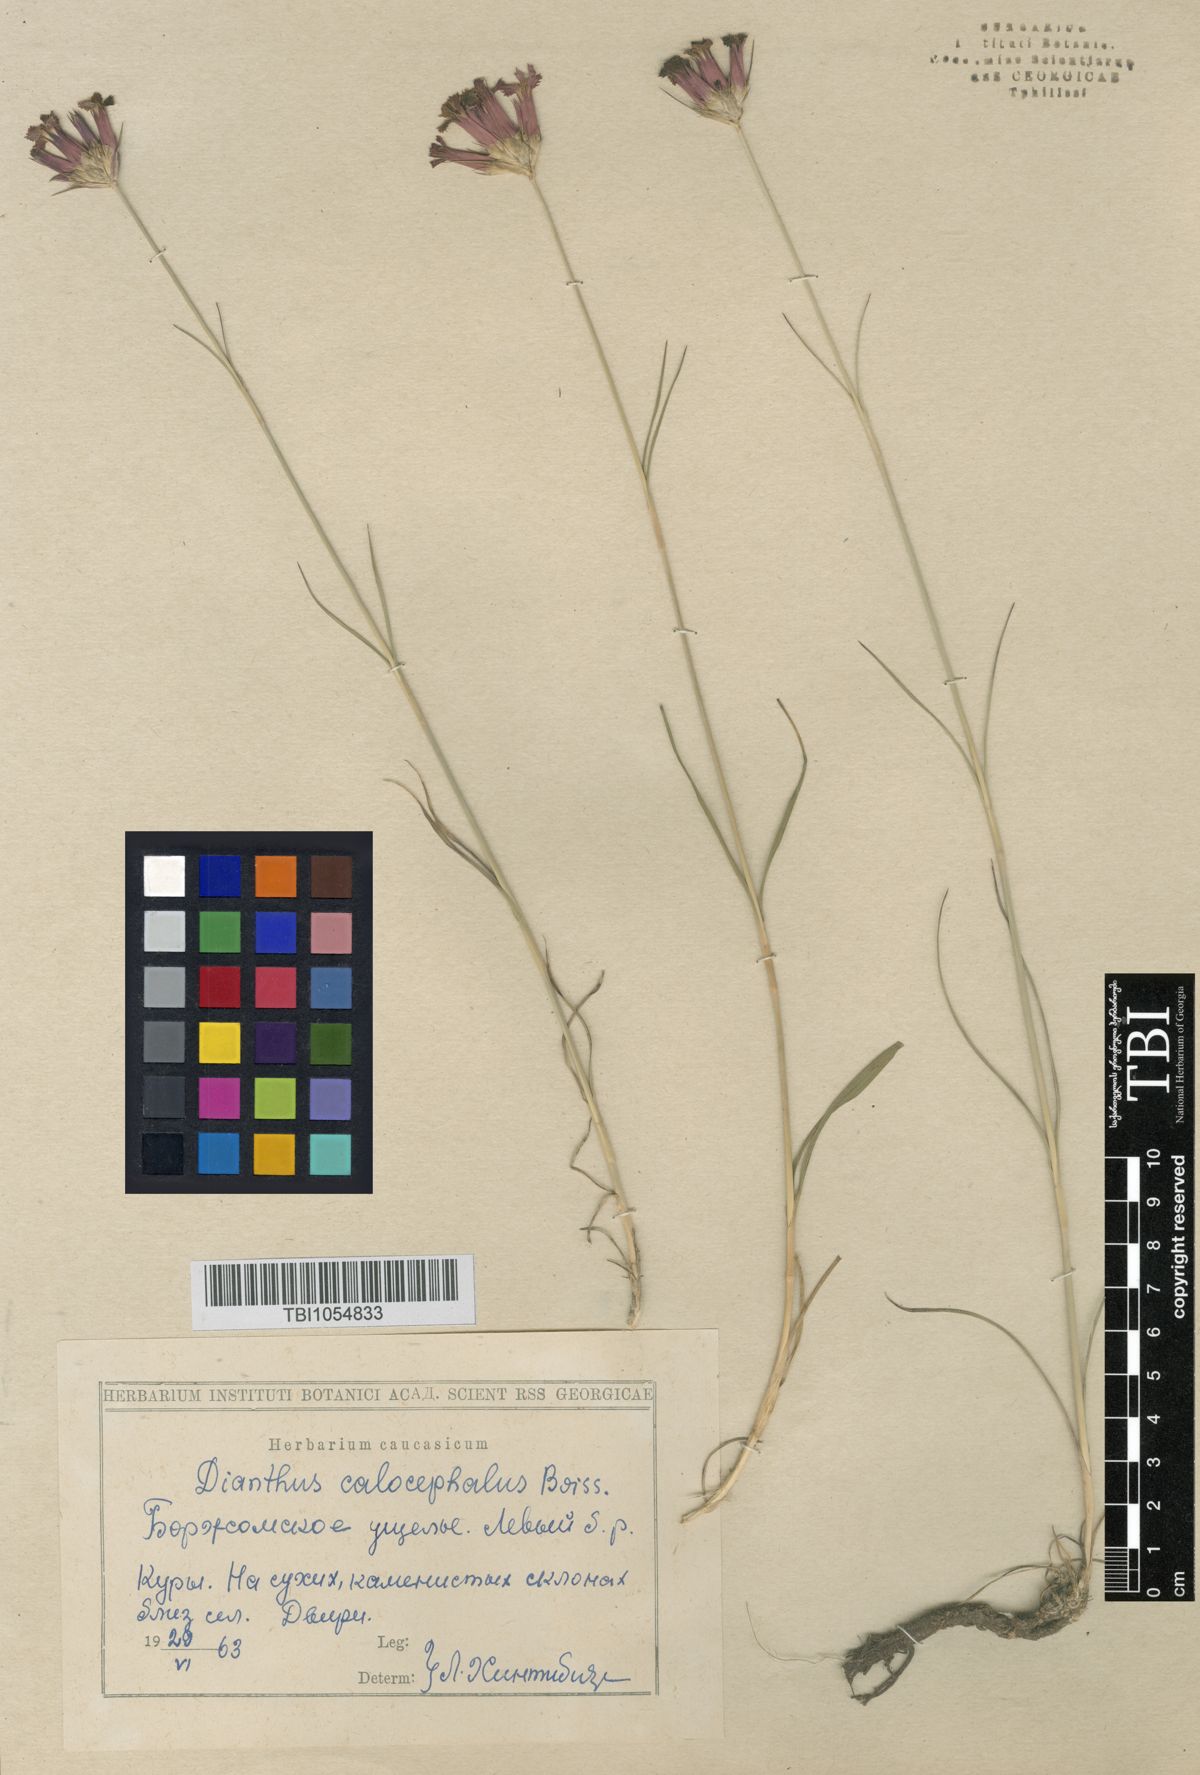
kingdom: Plantae
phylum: Tracheophyta
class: Magnoliopsida
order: Caryophyllales
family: Caryophyllaceae
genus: Dianthus
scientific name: Dianthus cruentus
